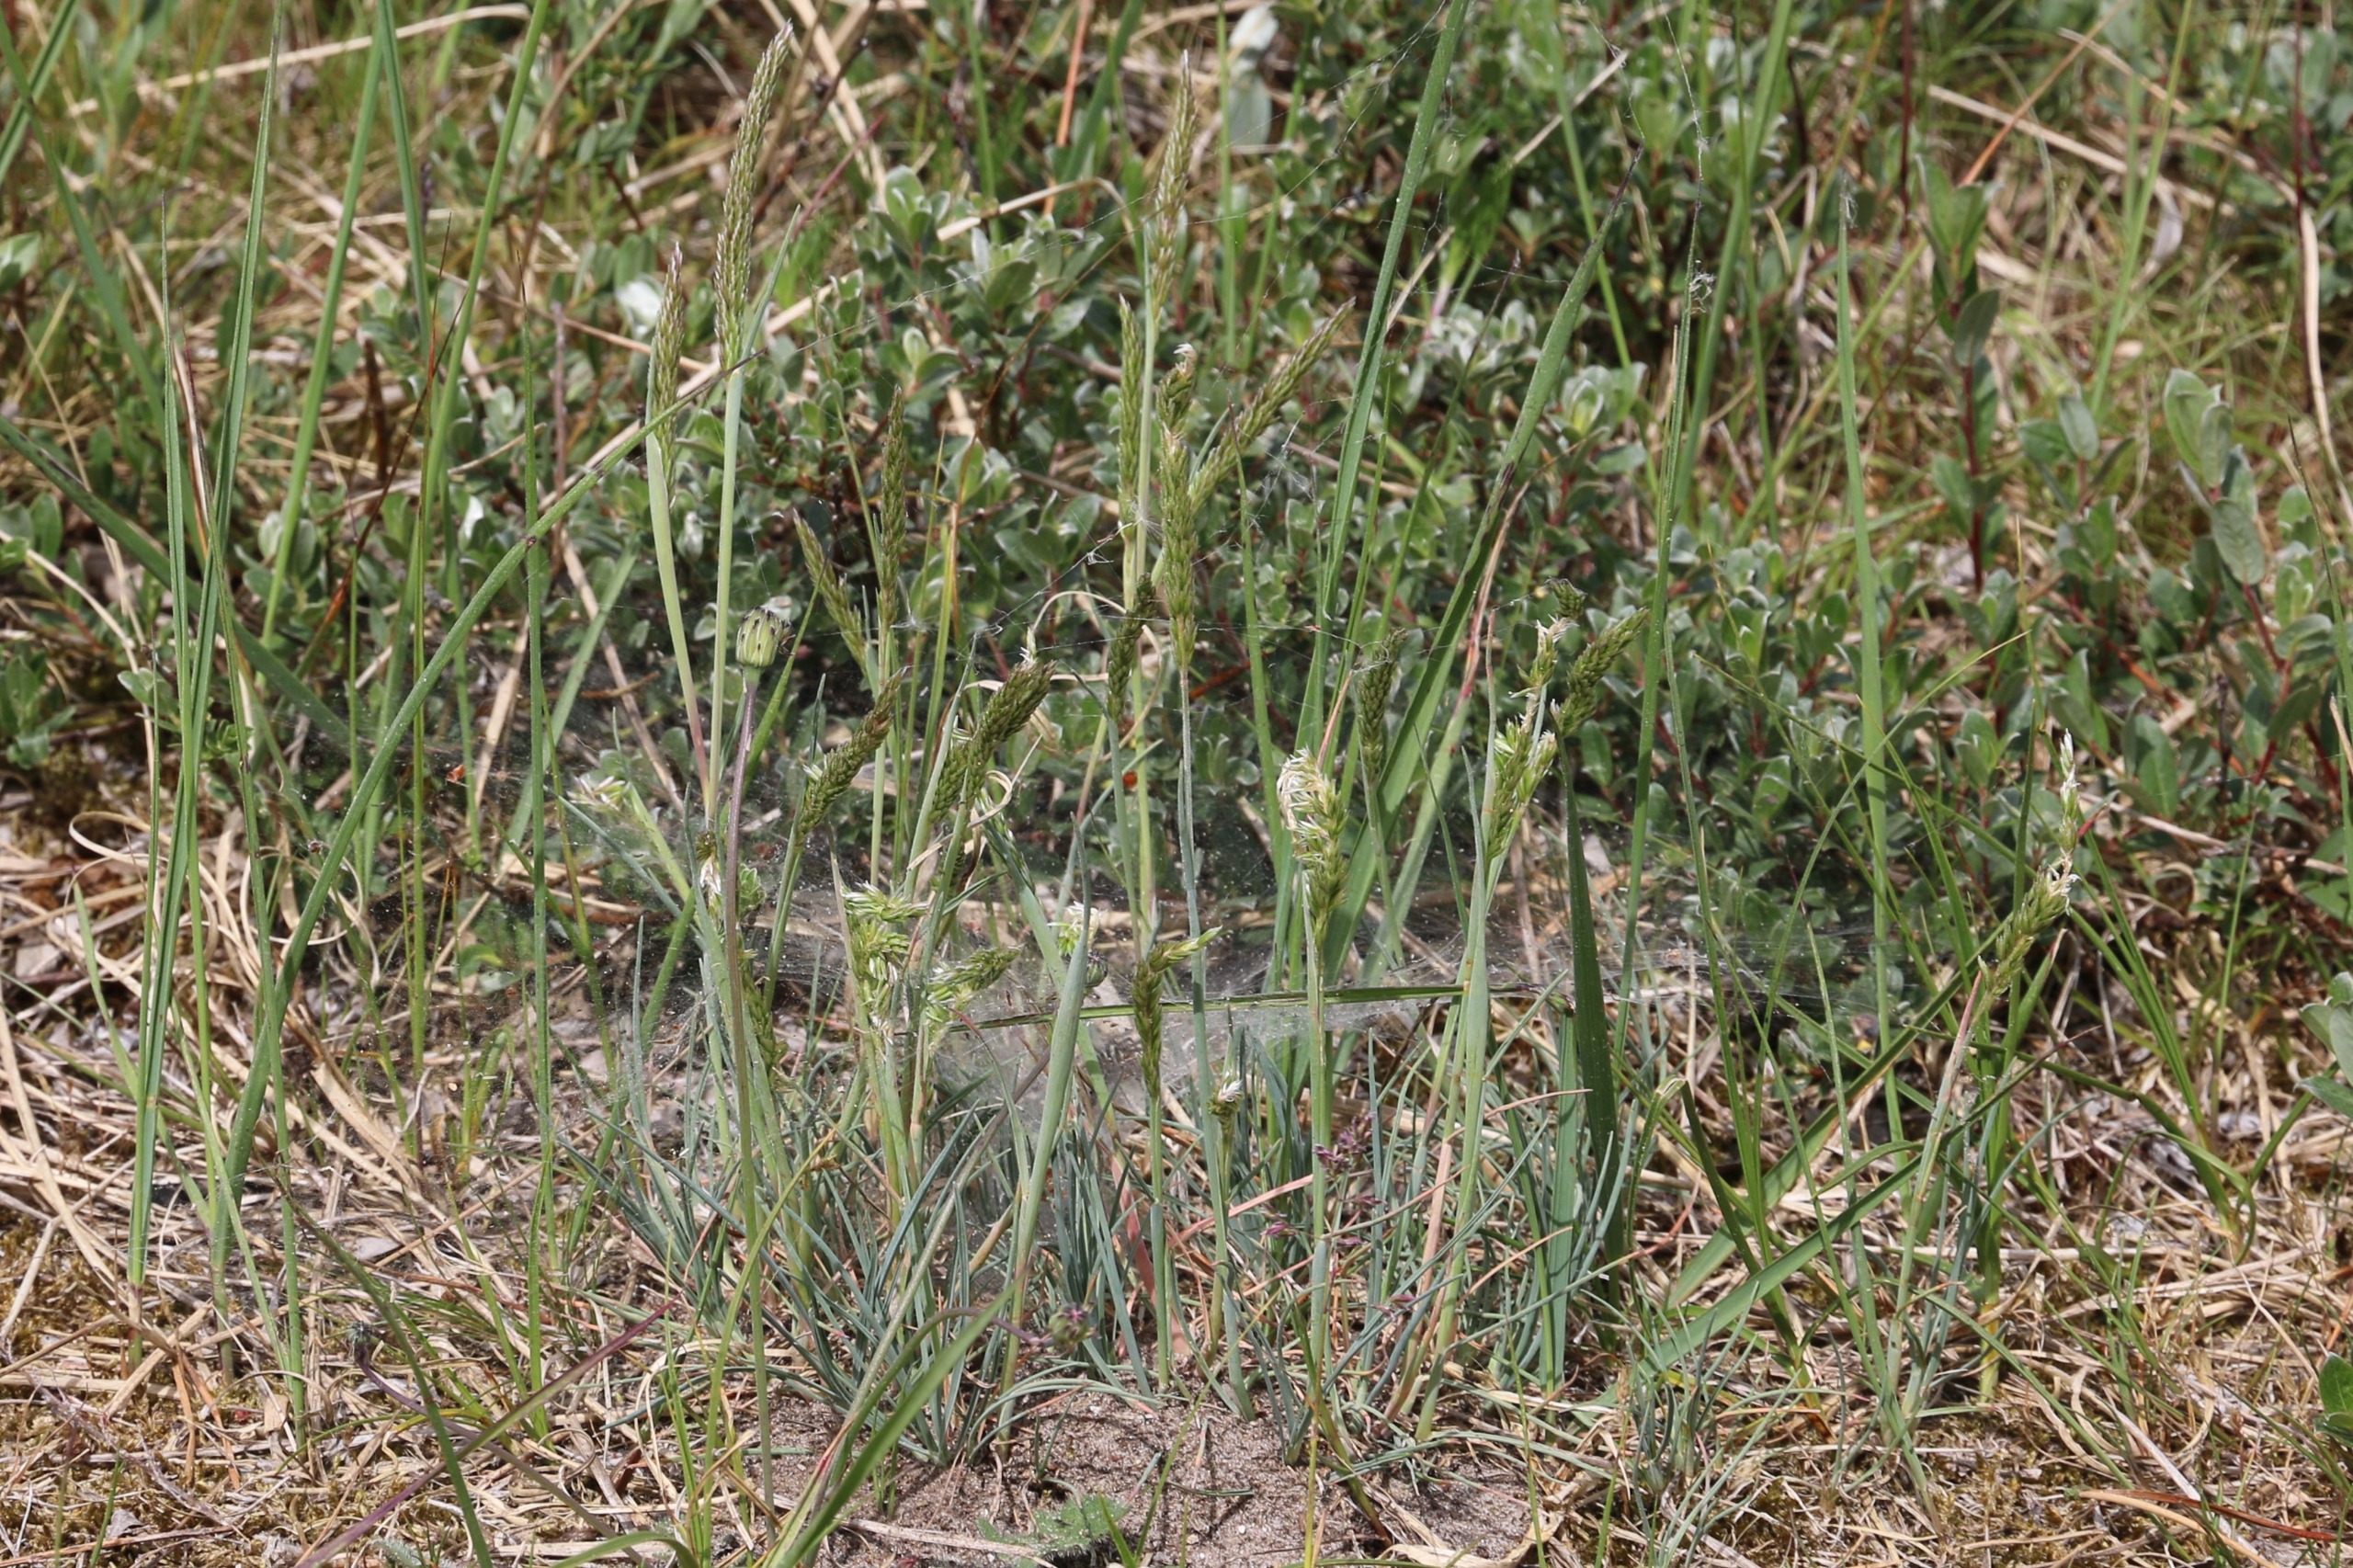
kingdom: Plantae
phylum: Tracheophyta
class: Liliopsida
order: Poales
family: Poaceae
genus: Koeleria
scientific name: Koeleria glauca
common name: Klit-kambunke
